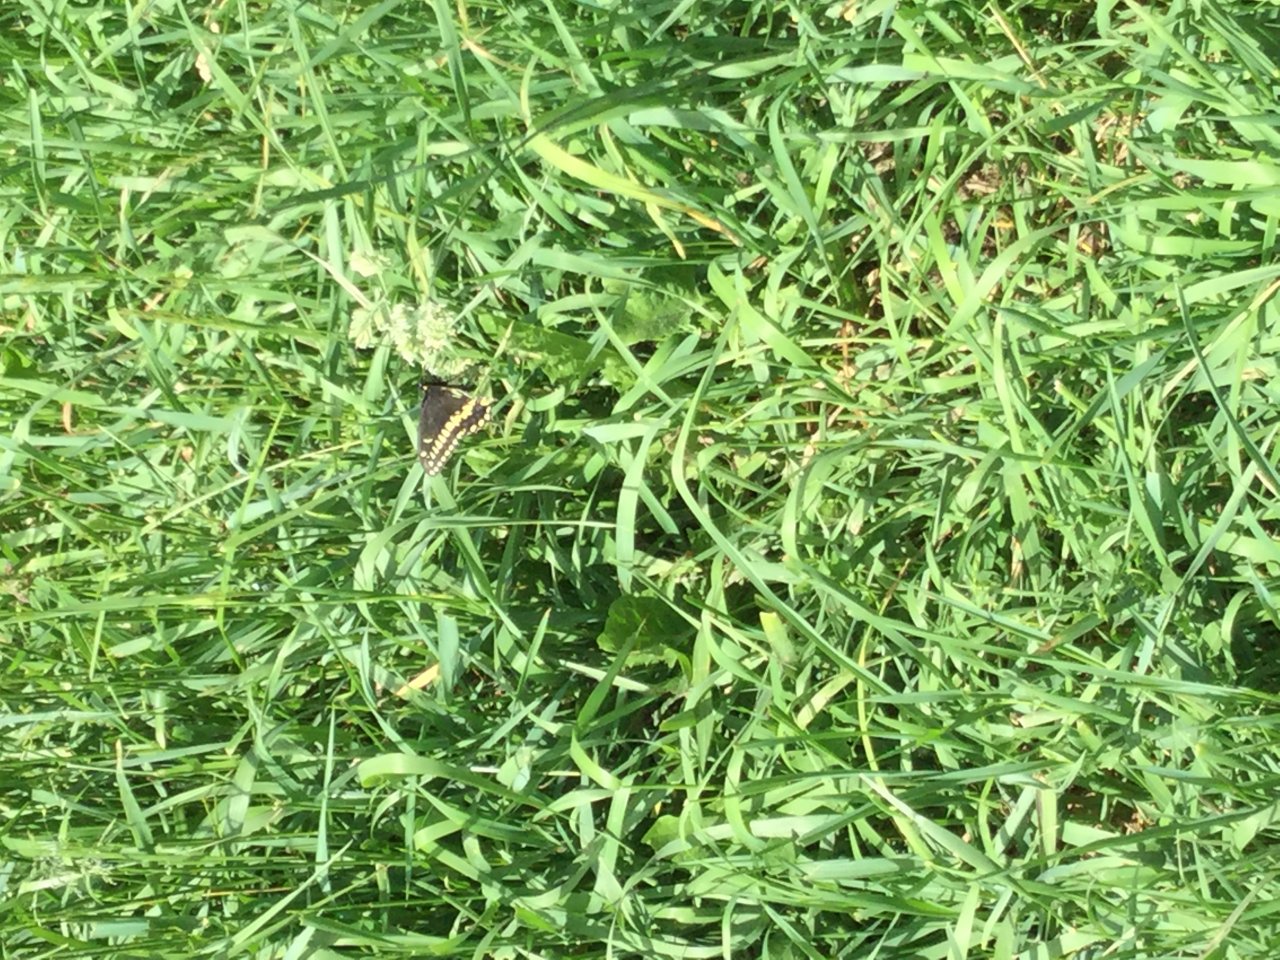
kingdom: Animalia
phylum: Arthropoda
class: Insecta
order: Lepidoptera
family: Papilionidae
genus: Papilio
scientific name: Papilio polyxenes
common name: Black Swallowtail
